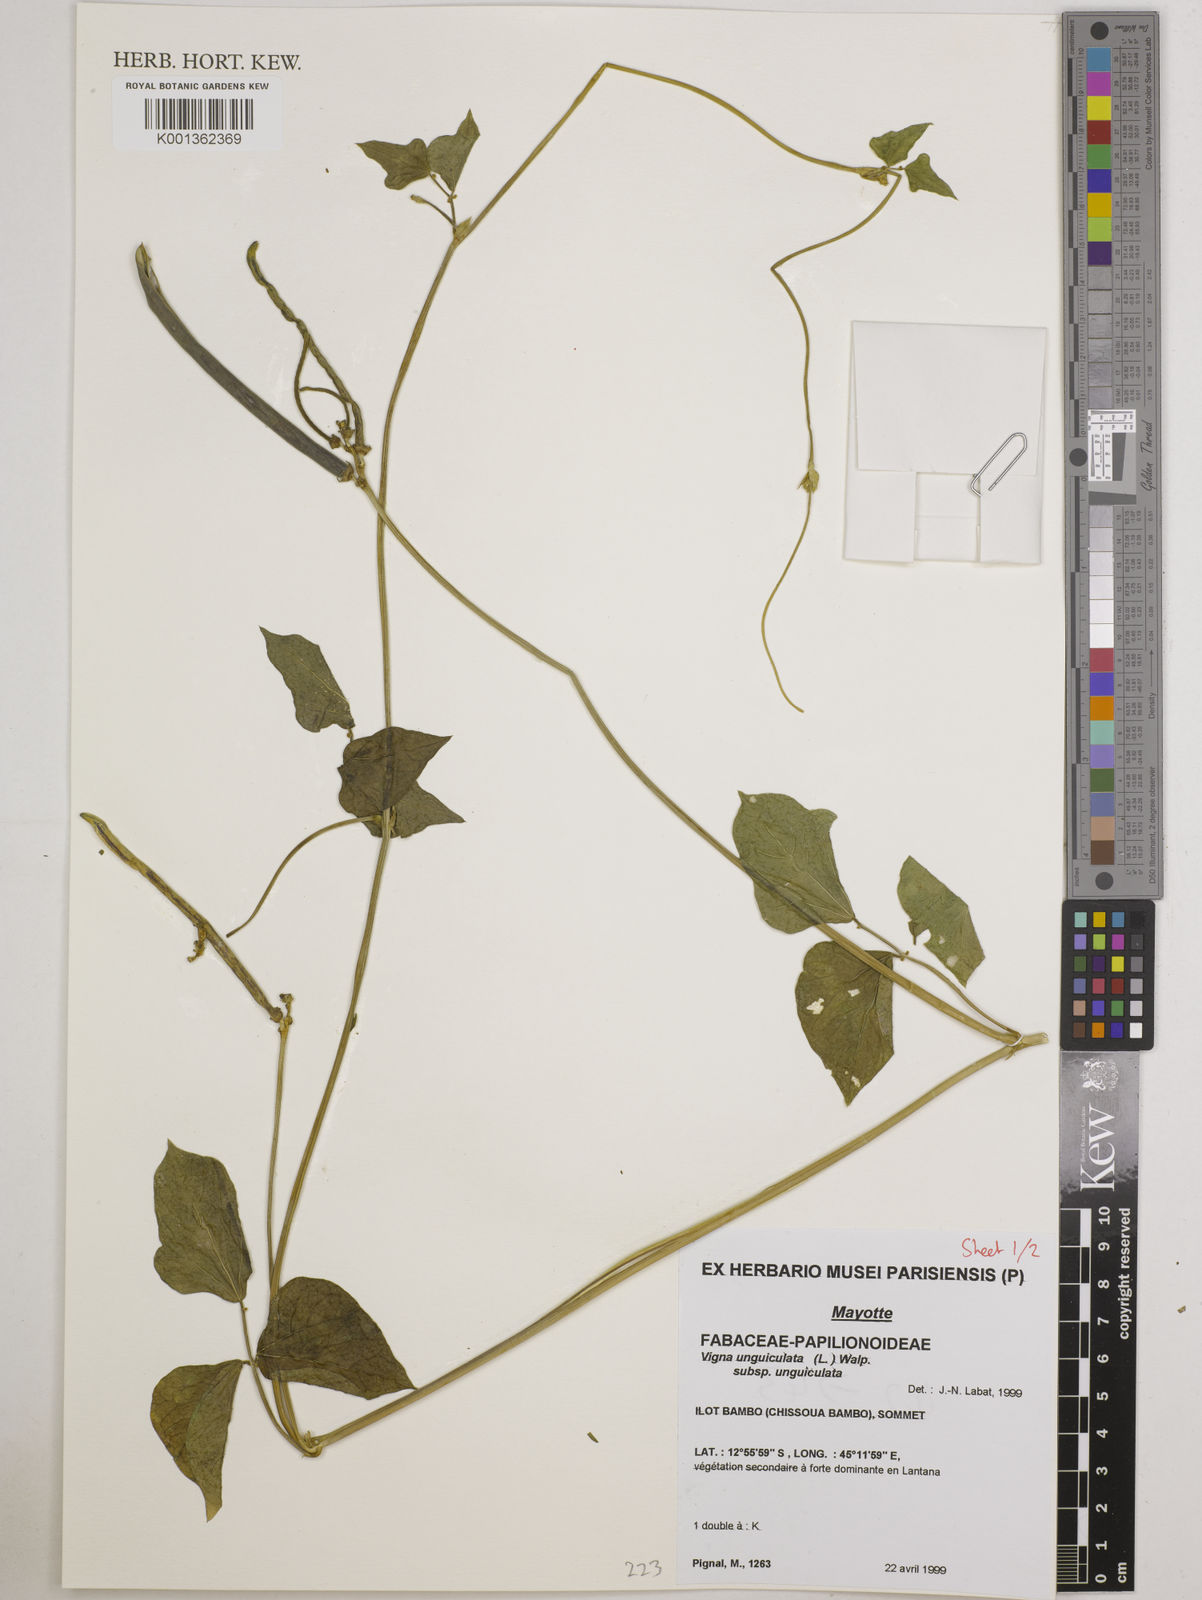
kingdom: Plantae
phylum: Tracheophyta
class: Magnoliopsida
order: Fabales
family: Fabaceae
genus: Vigna
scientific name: Vigna
